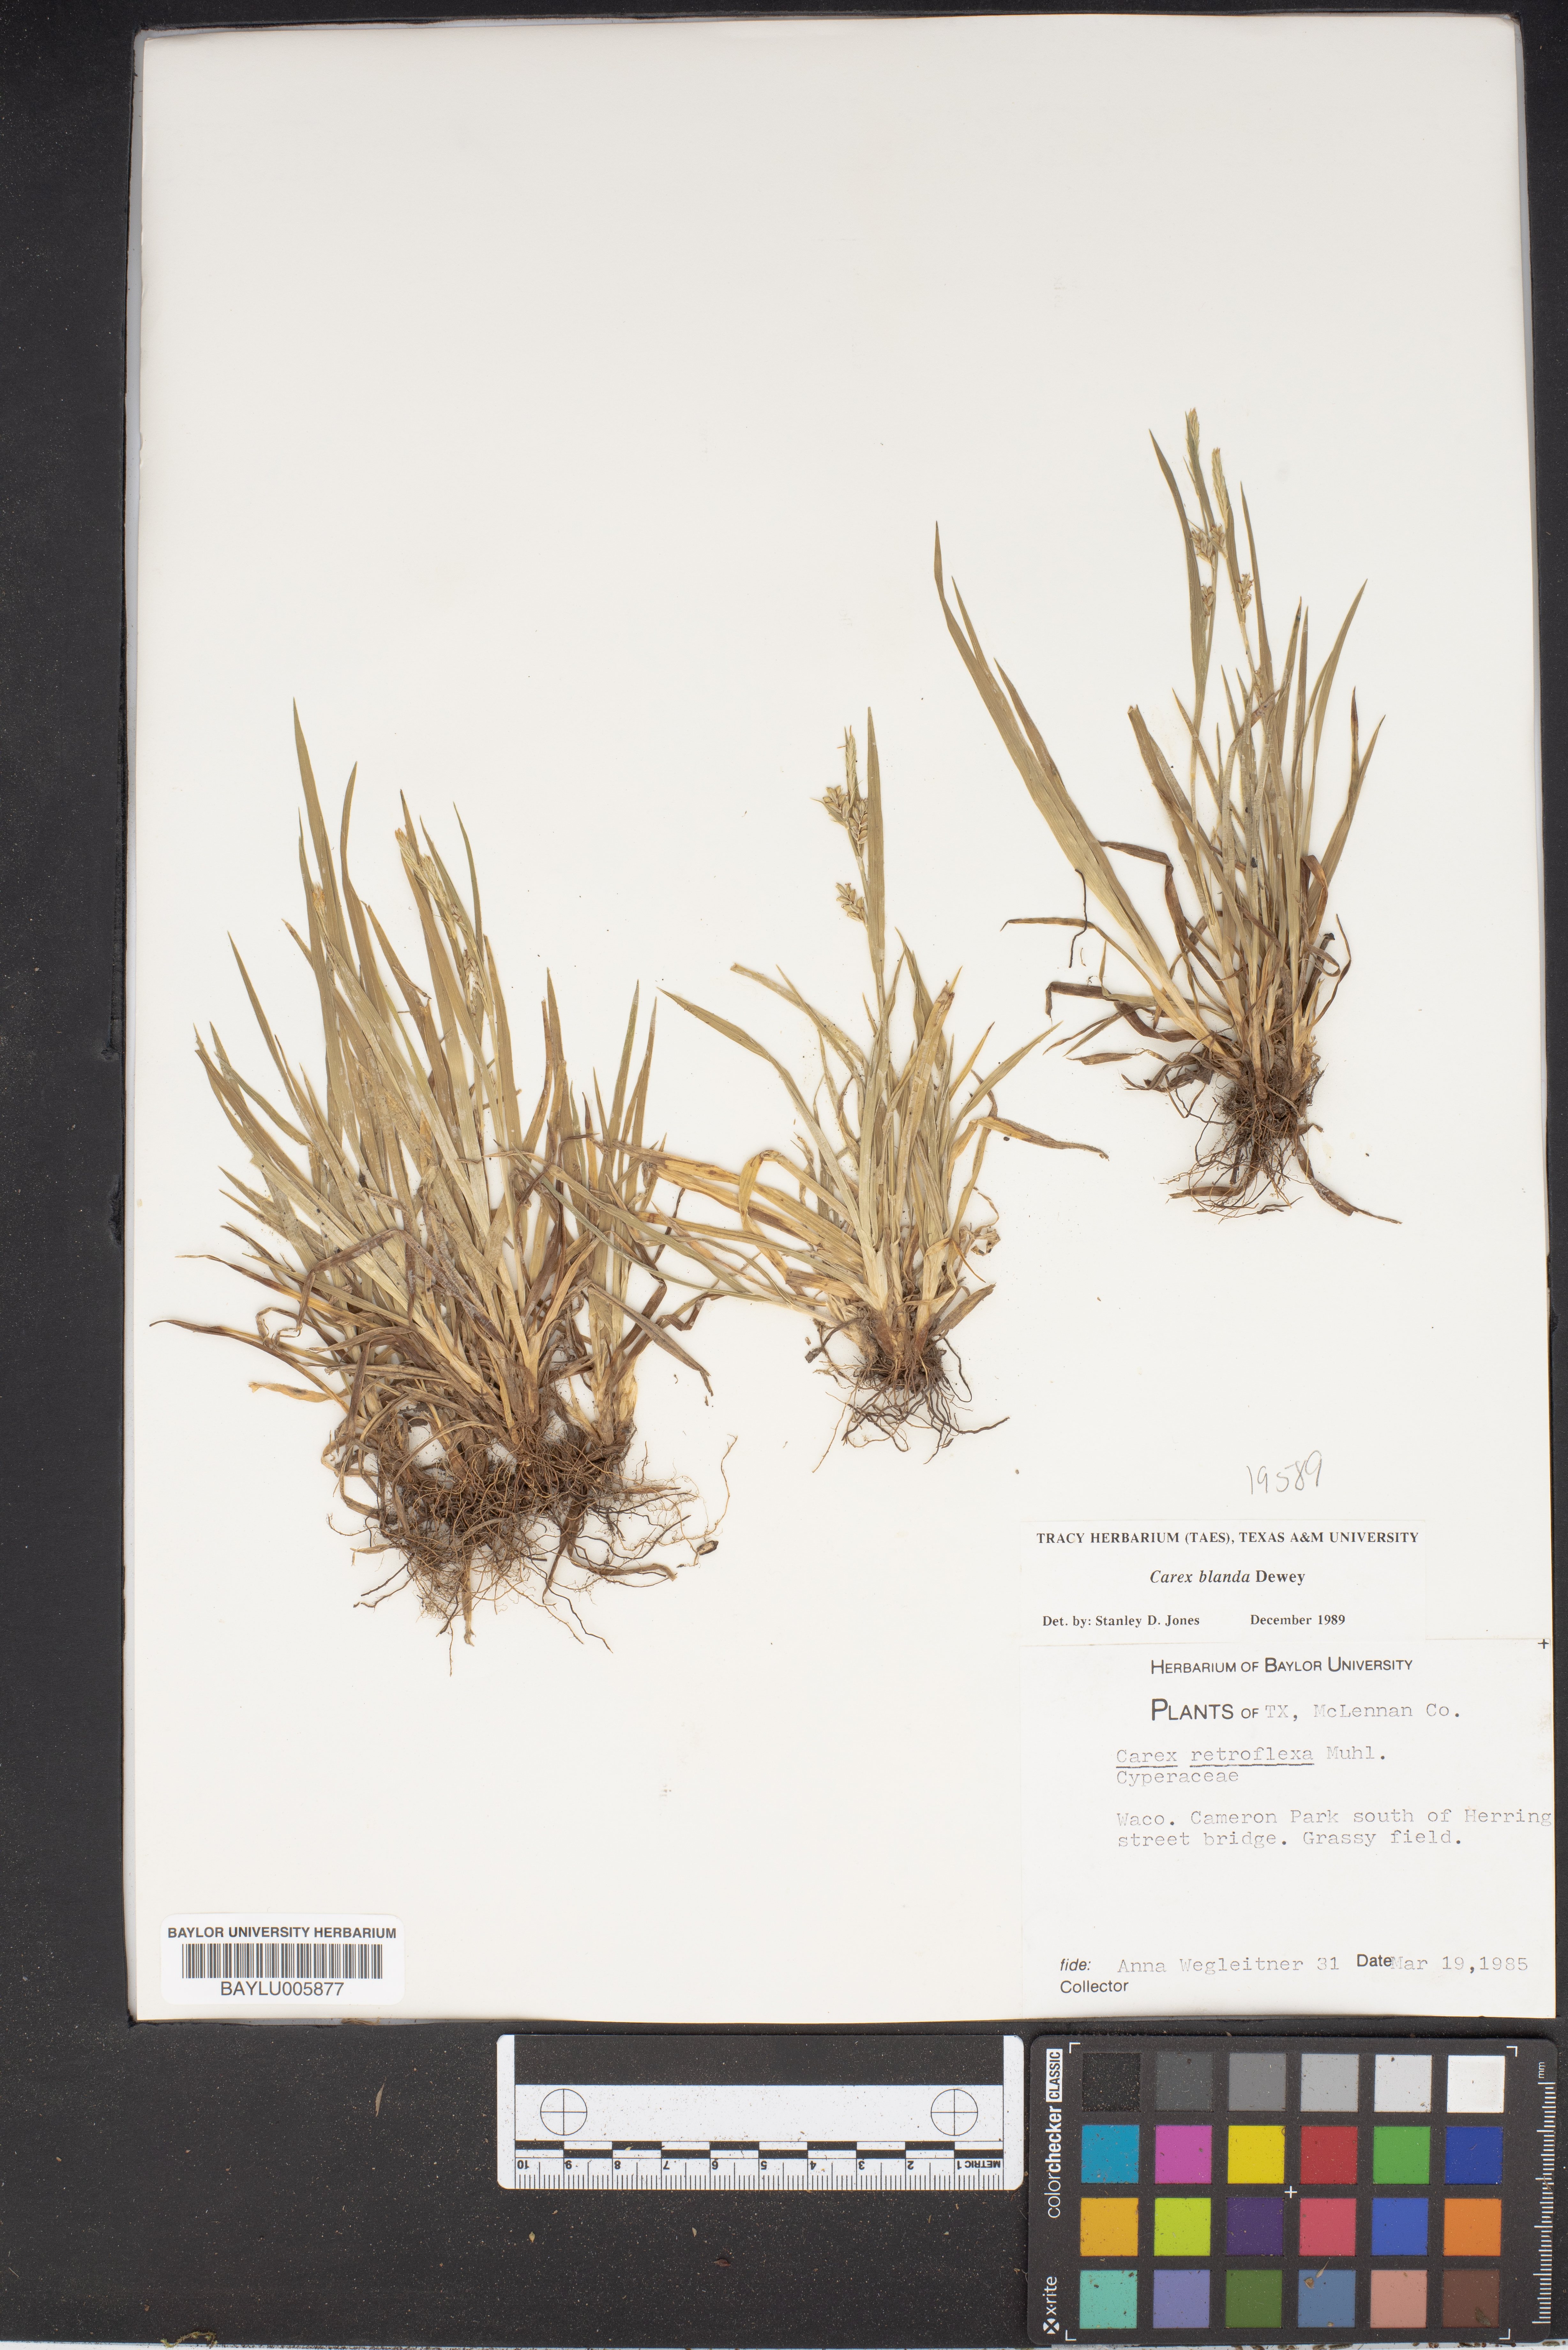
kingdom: Plantae
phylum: Tracheophyta
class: Liliopsida
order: Poales
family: Cyperaceae
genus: Carex
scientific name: Carex retroflexa
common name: Reflexed sedge
